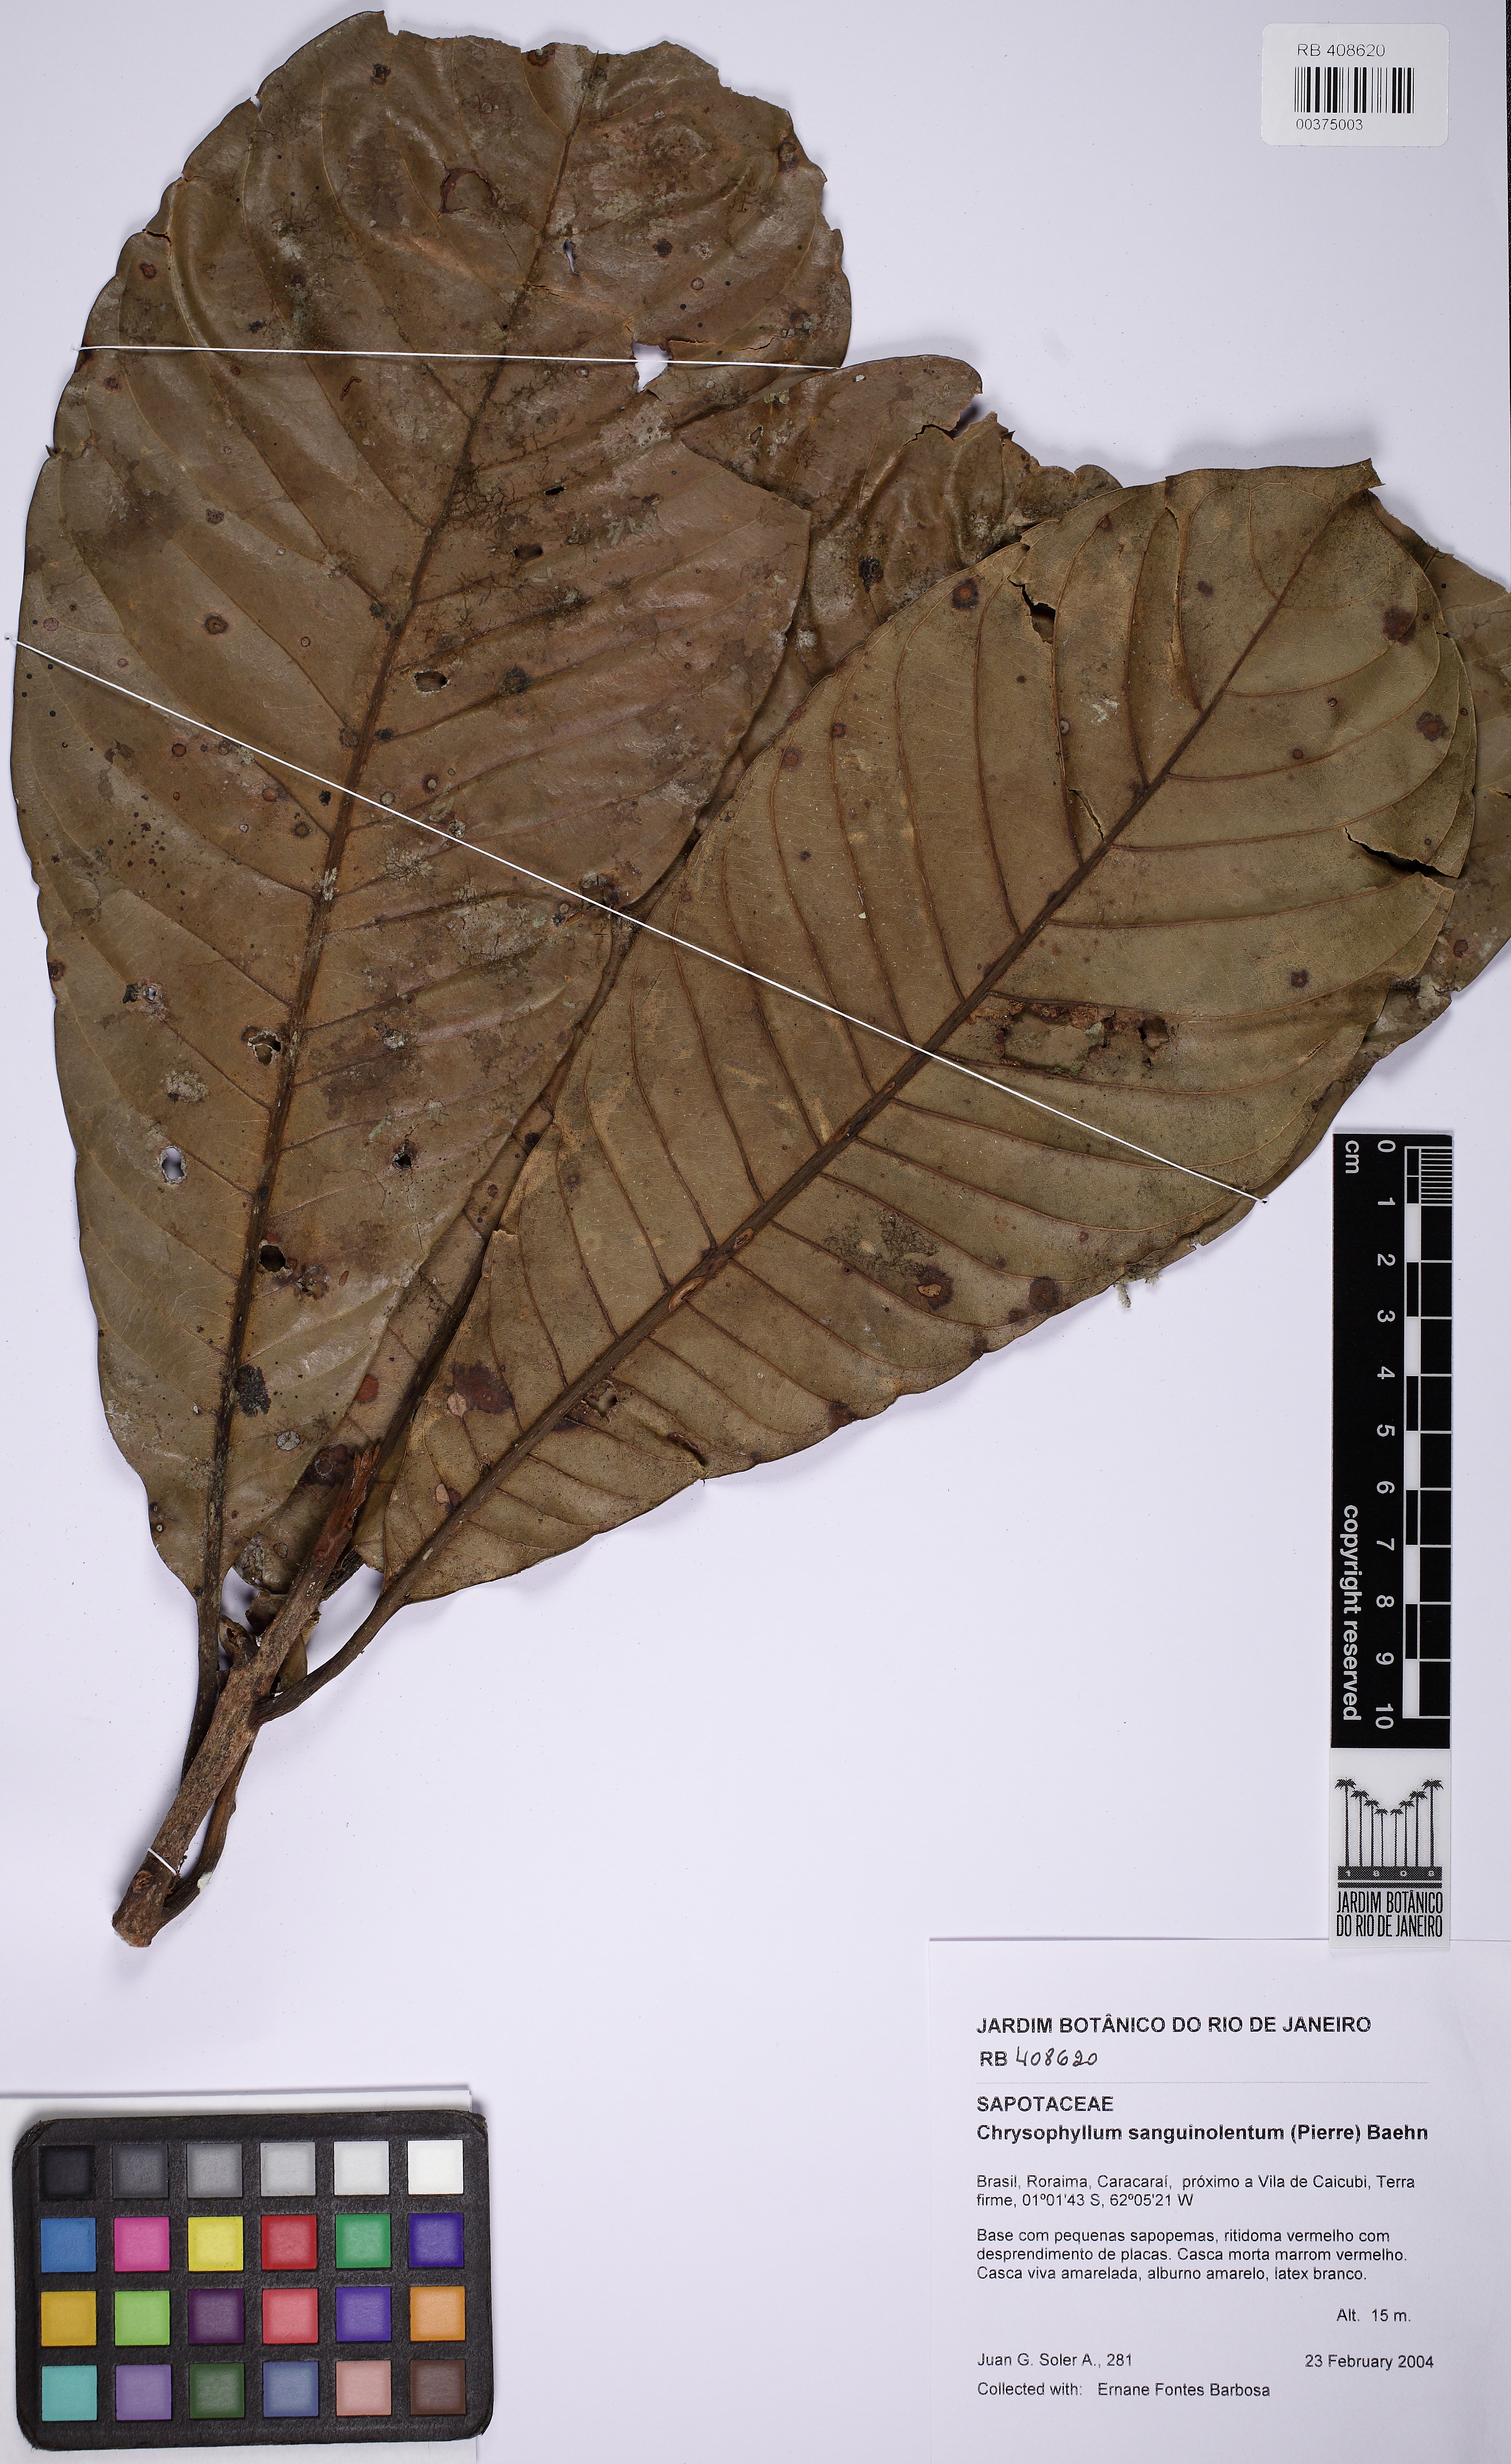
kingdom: Plantae
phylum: Tracheophyta
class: Magnoliopsida
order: Ericales
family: Sapotaceae
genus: Chrysophyllum
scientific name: Chrysophyllum sanguinolentum
